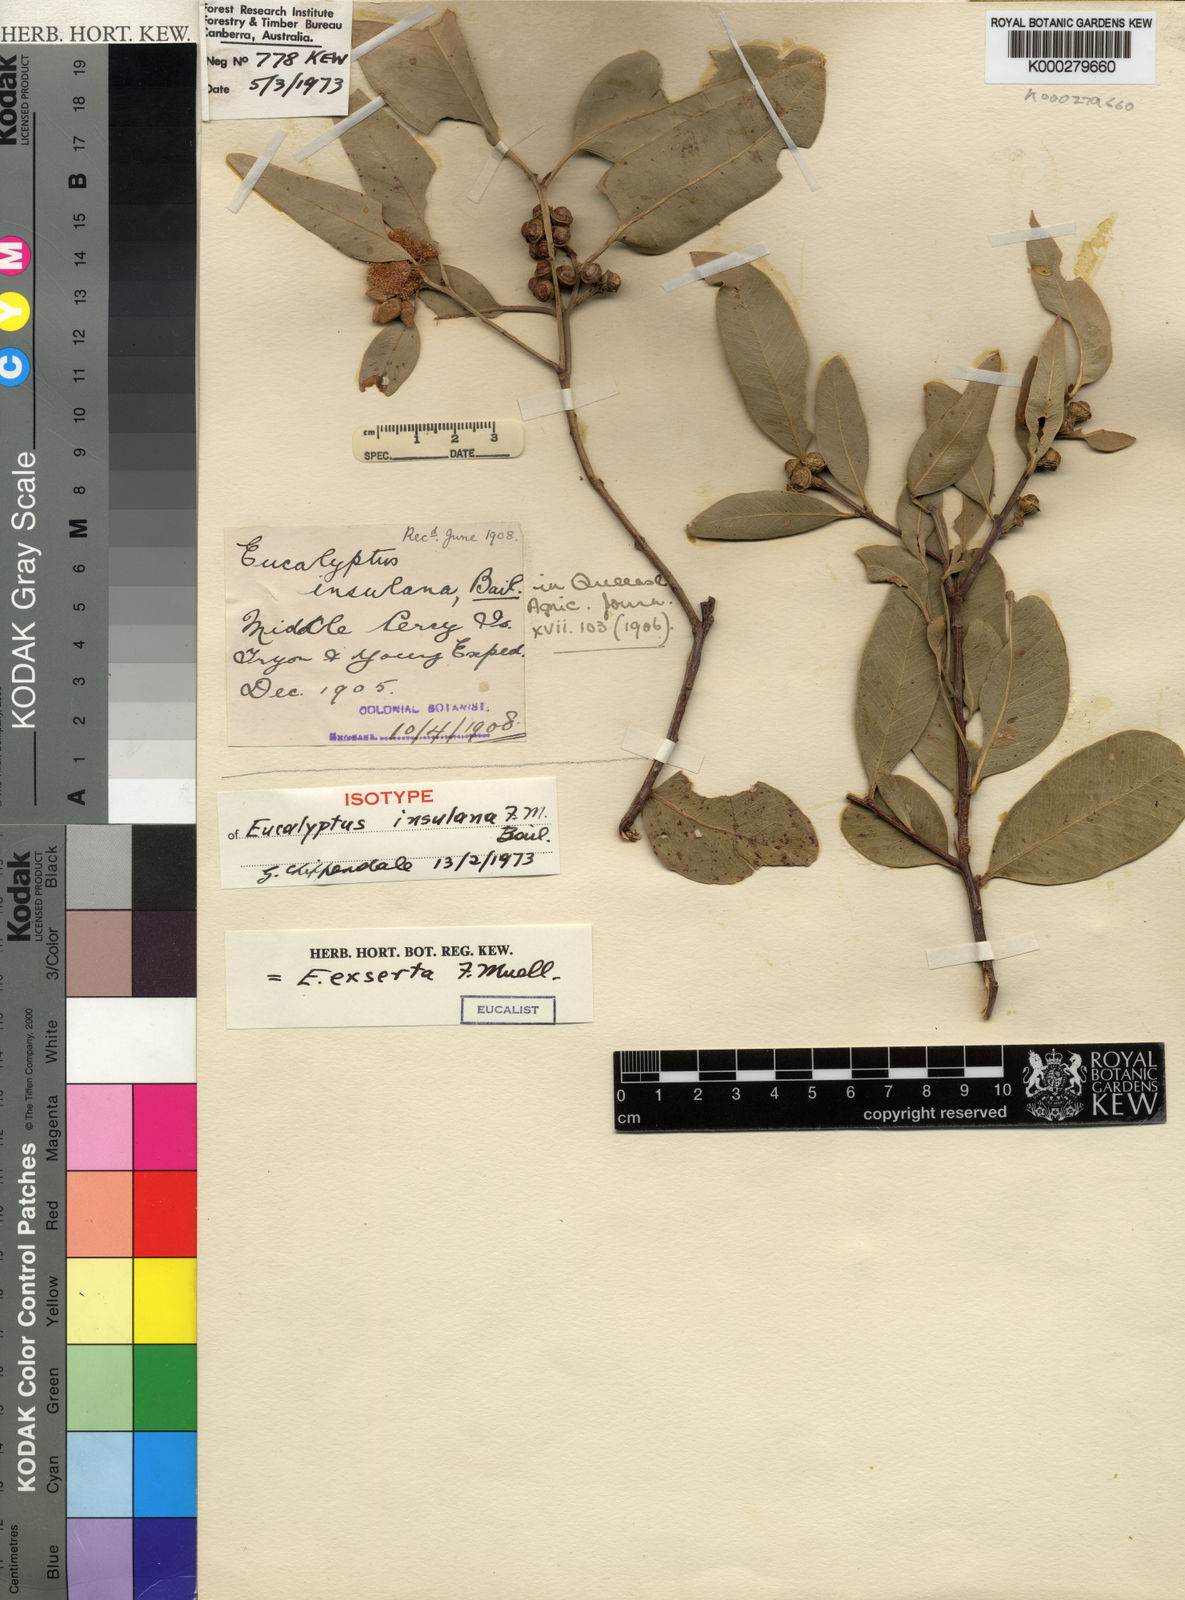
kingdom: Plantae
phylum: Tracheophyta
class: Magnoliopsida
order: Myrtales
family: Myrtaceae
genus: Eucalyptus
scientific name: Eucalyptus exserta
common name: Peppermint-bendo
